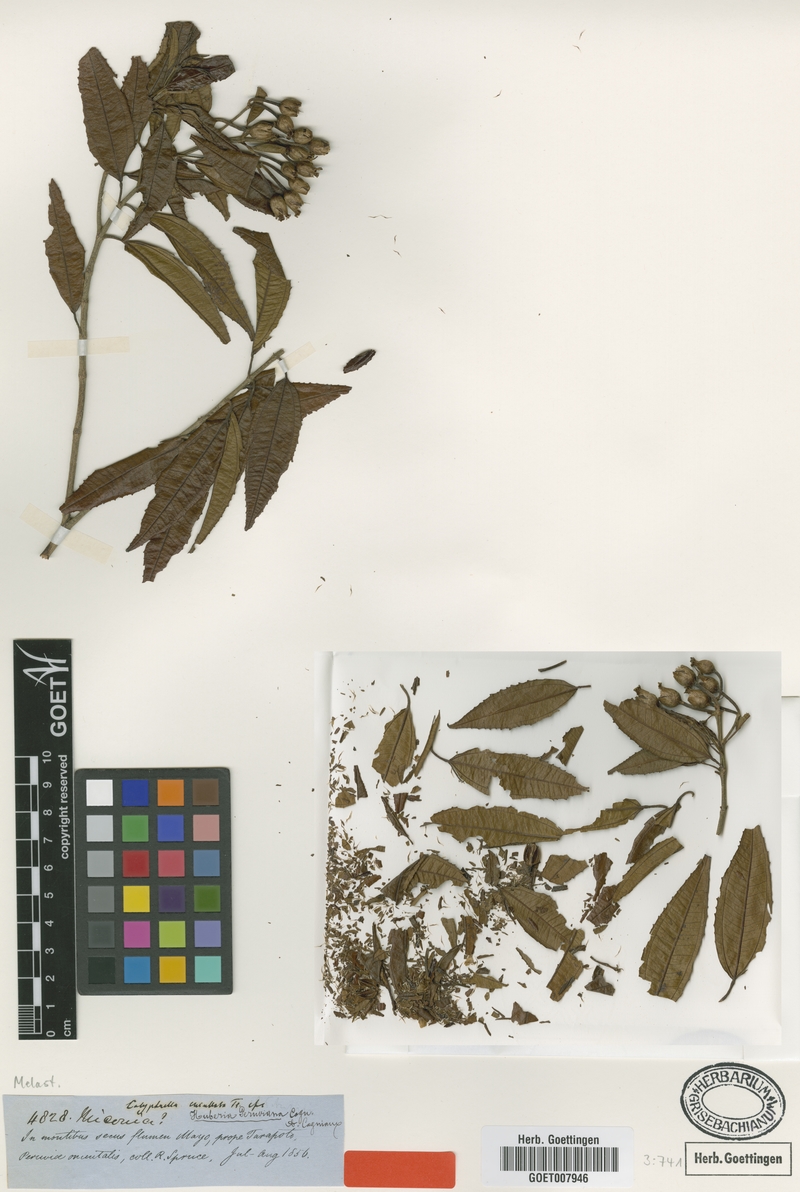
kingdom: Plantae
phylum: Tracheophyta
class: Magnoliopsida
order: Myrtales
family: Melastomataceae
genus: Huberia
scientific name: Huberia peruviana
